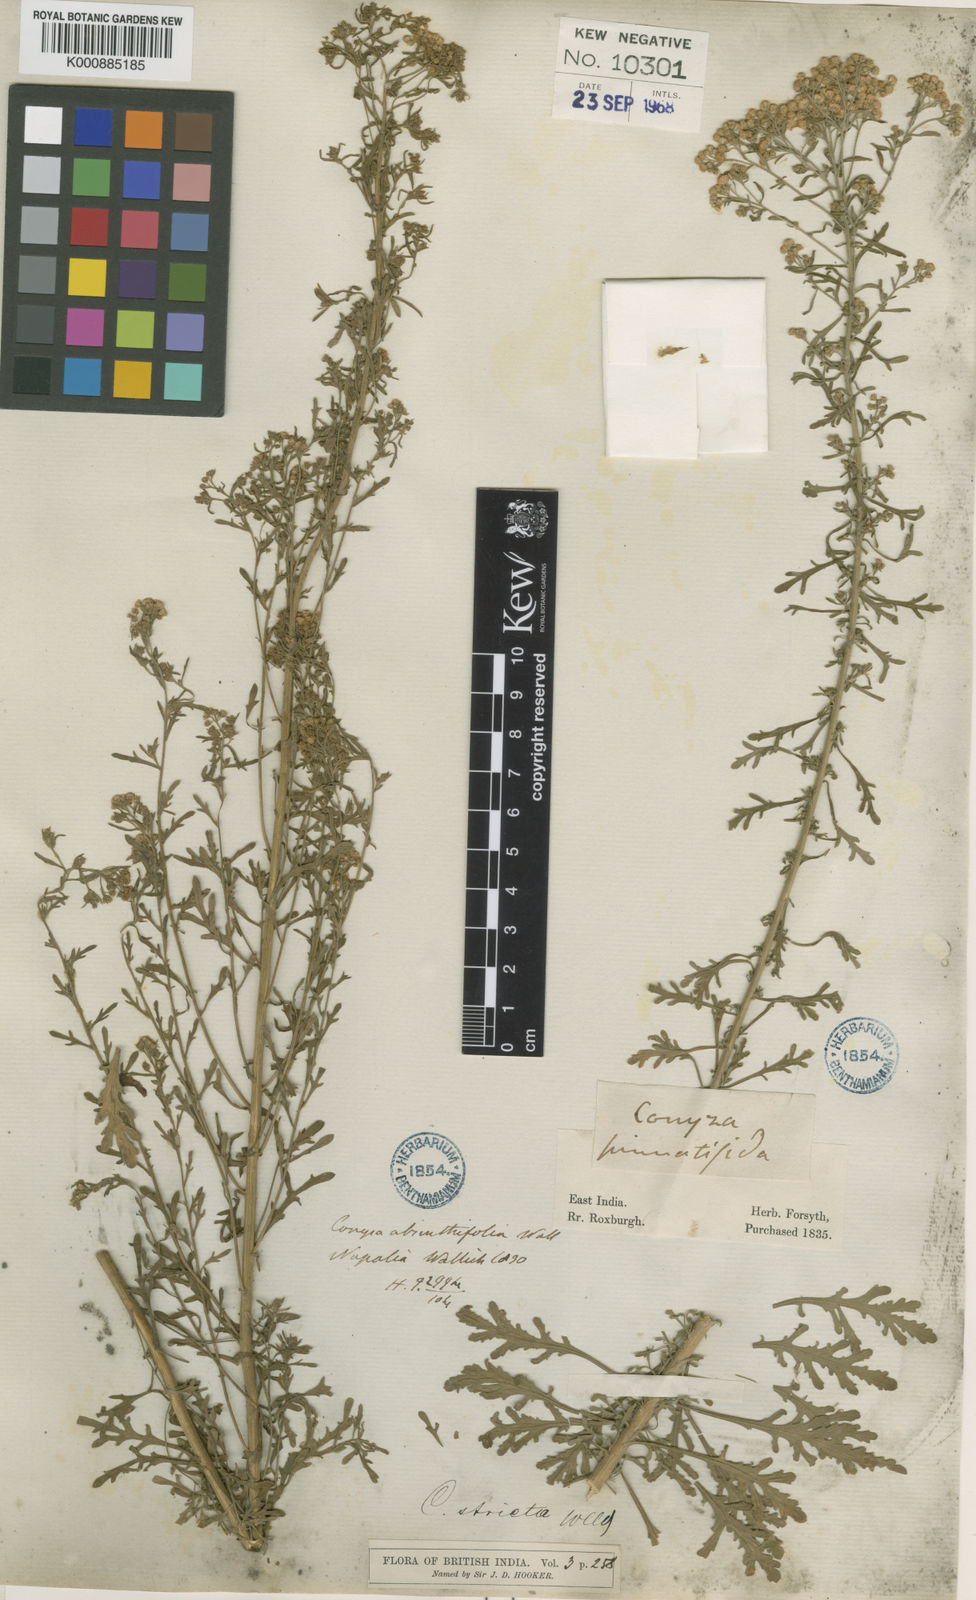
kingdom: Plantae
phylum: Tracheophyta
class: Magnoliopsida
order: Asterales
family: Asteraceae
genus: Nidorella
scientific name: Nidorella triloba
